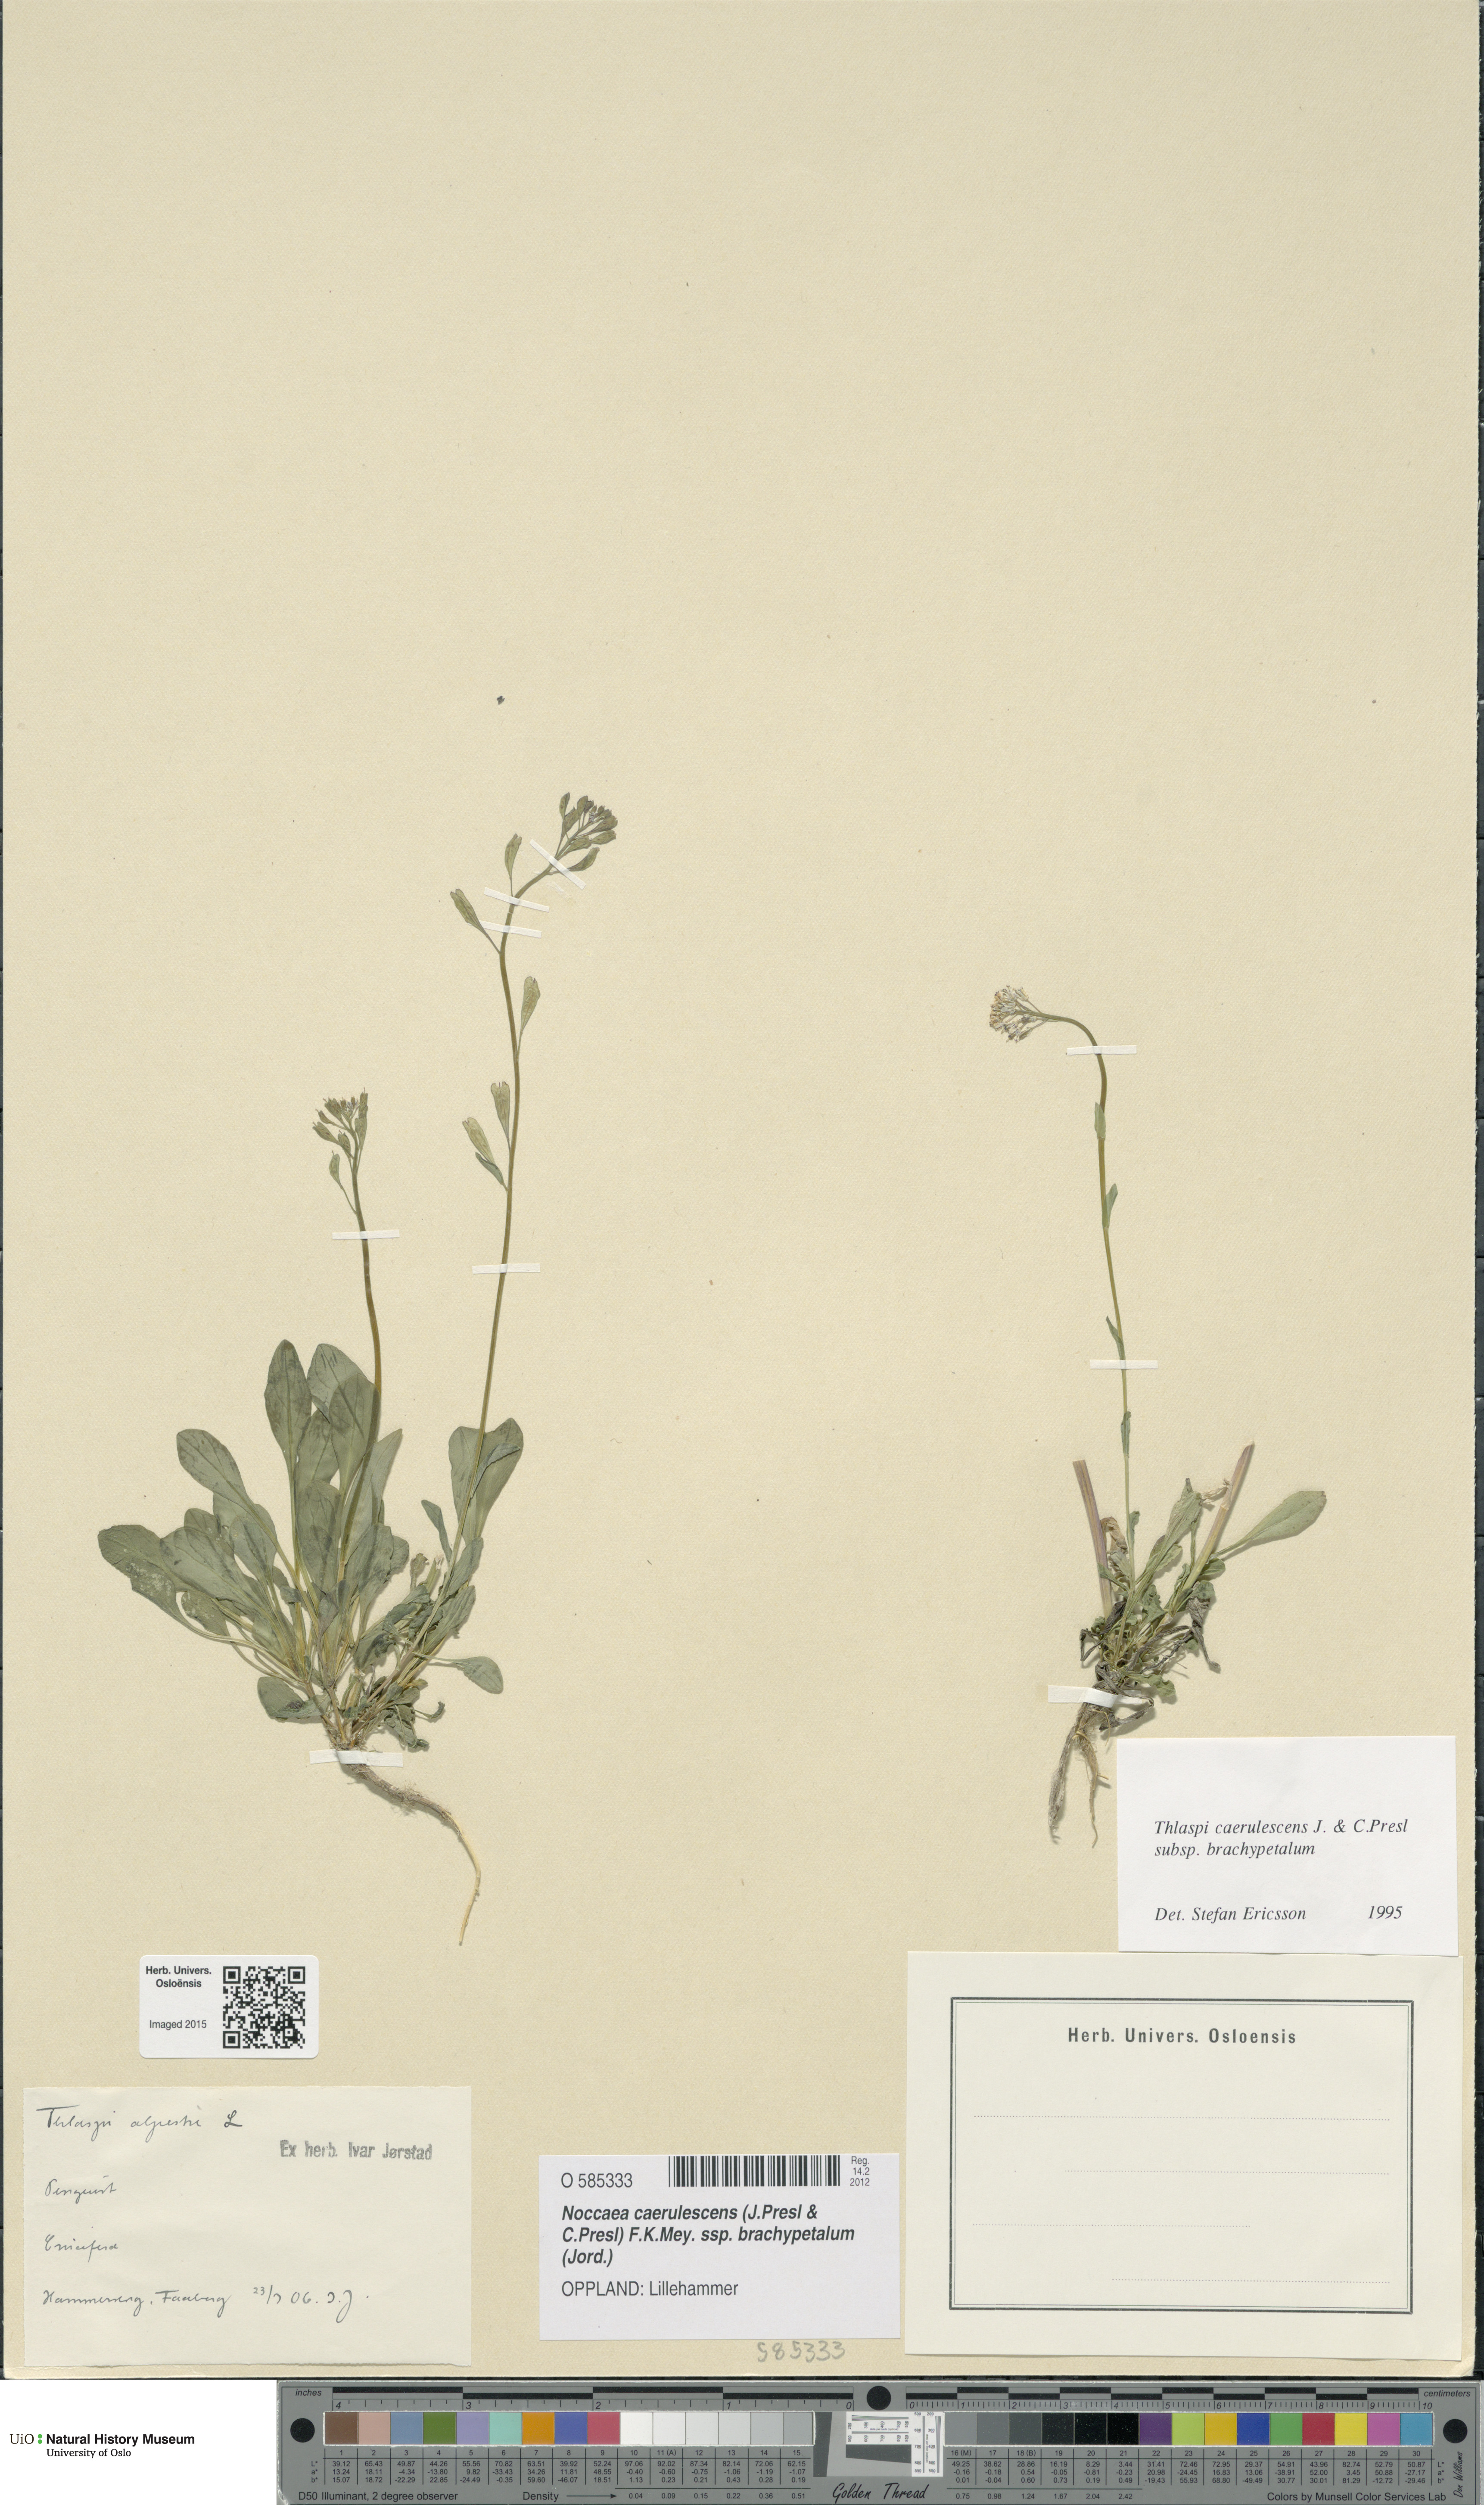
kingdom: Plantae
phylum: Tracheophyta
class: Magnoliopsida
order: Brassicales
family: Brassicaceae
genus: Noccaea
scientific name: Noccaea brachypetala
